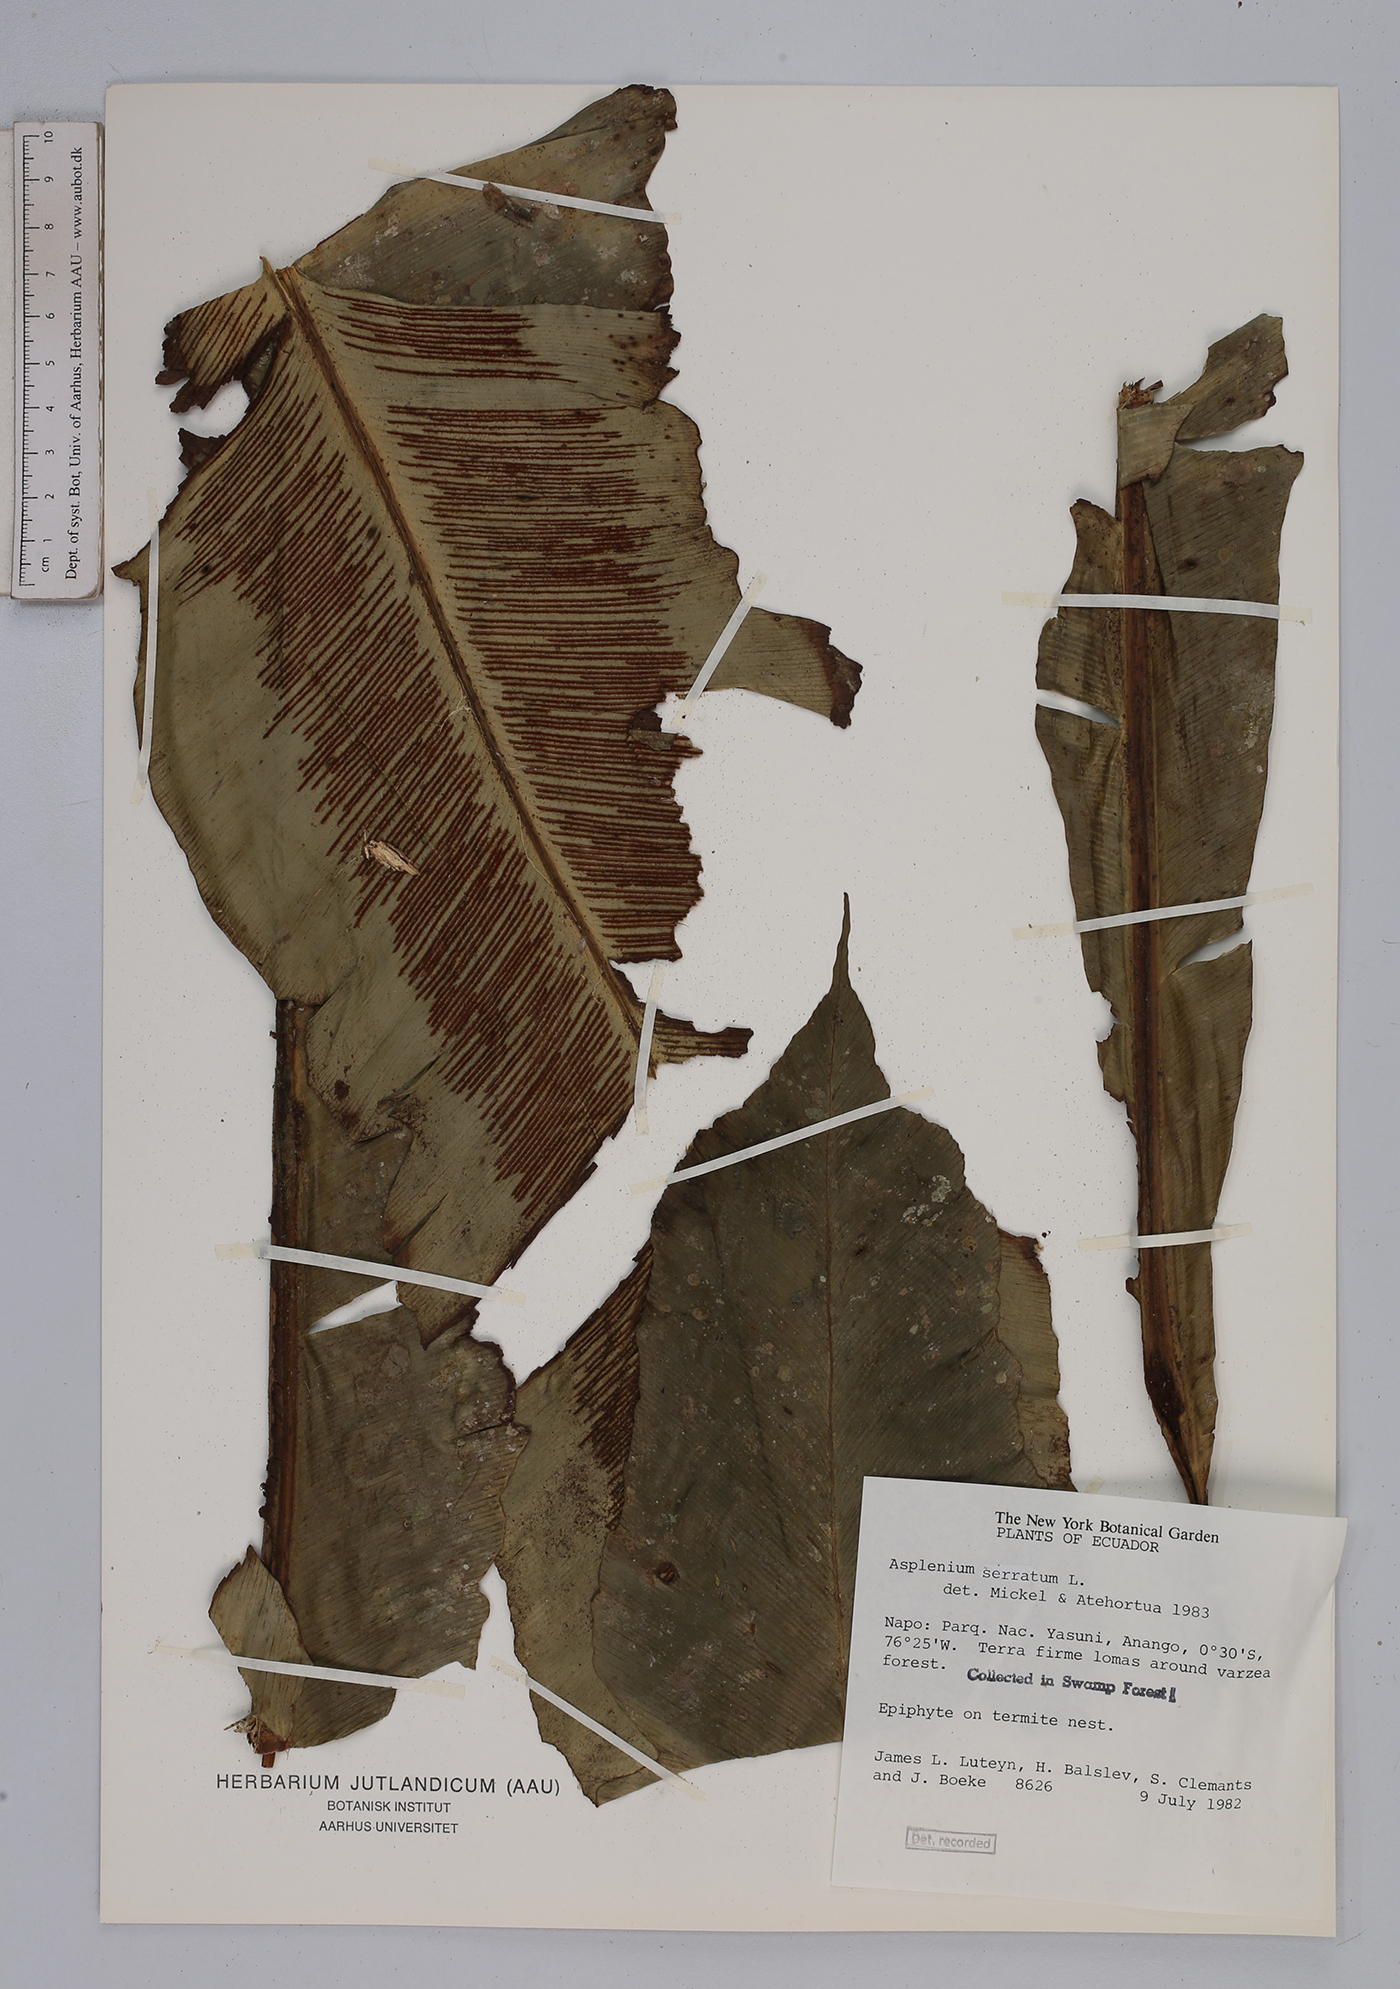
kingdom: Plantae
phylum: Tracheophyta
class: Polypodiopsida
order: Polypodiales
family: Aspleniaceae
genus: Asplenium
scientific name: Asplenium serratum
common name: Wild birdnest fern
